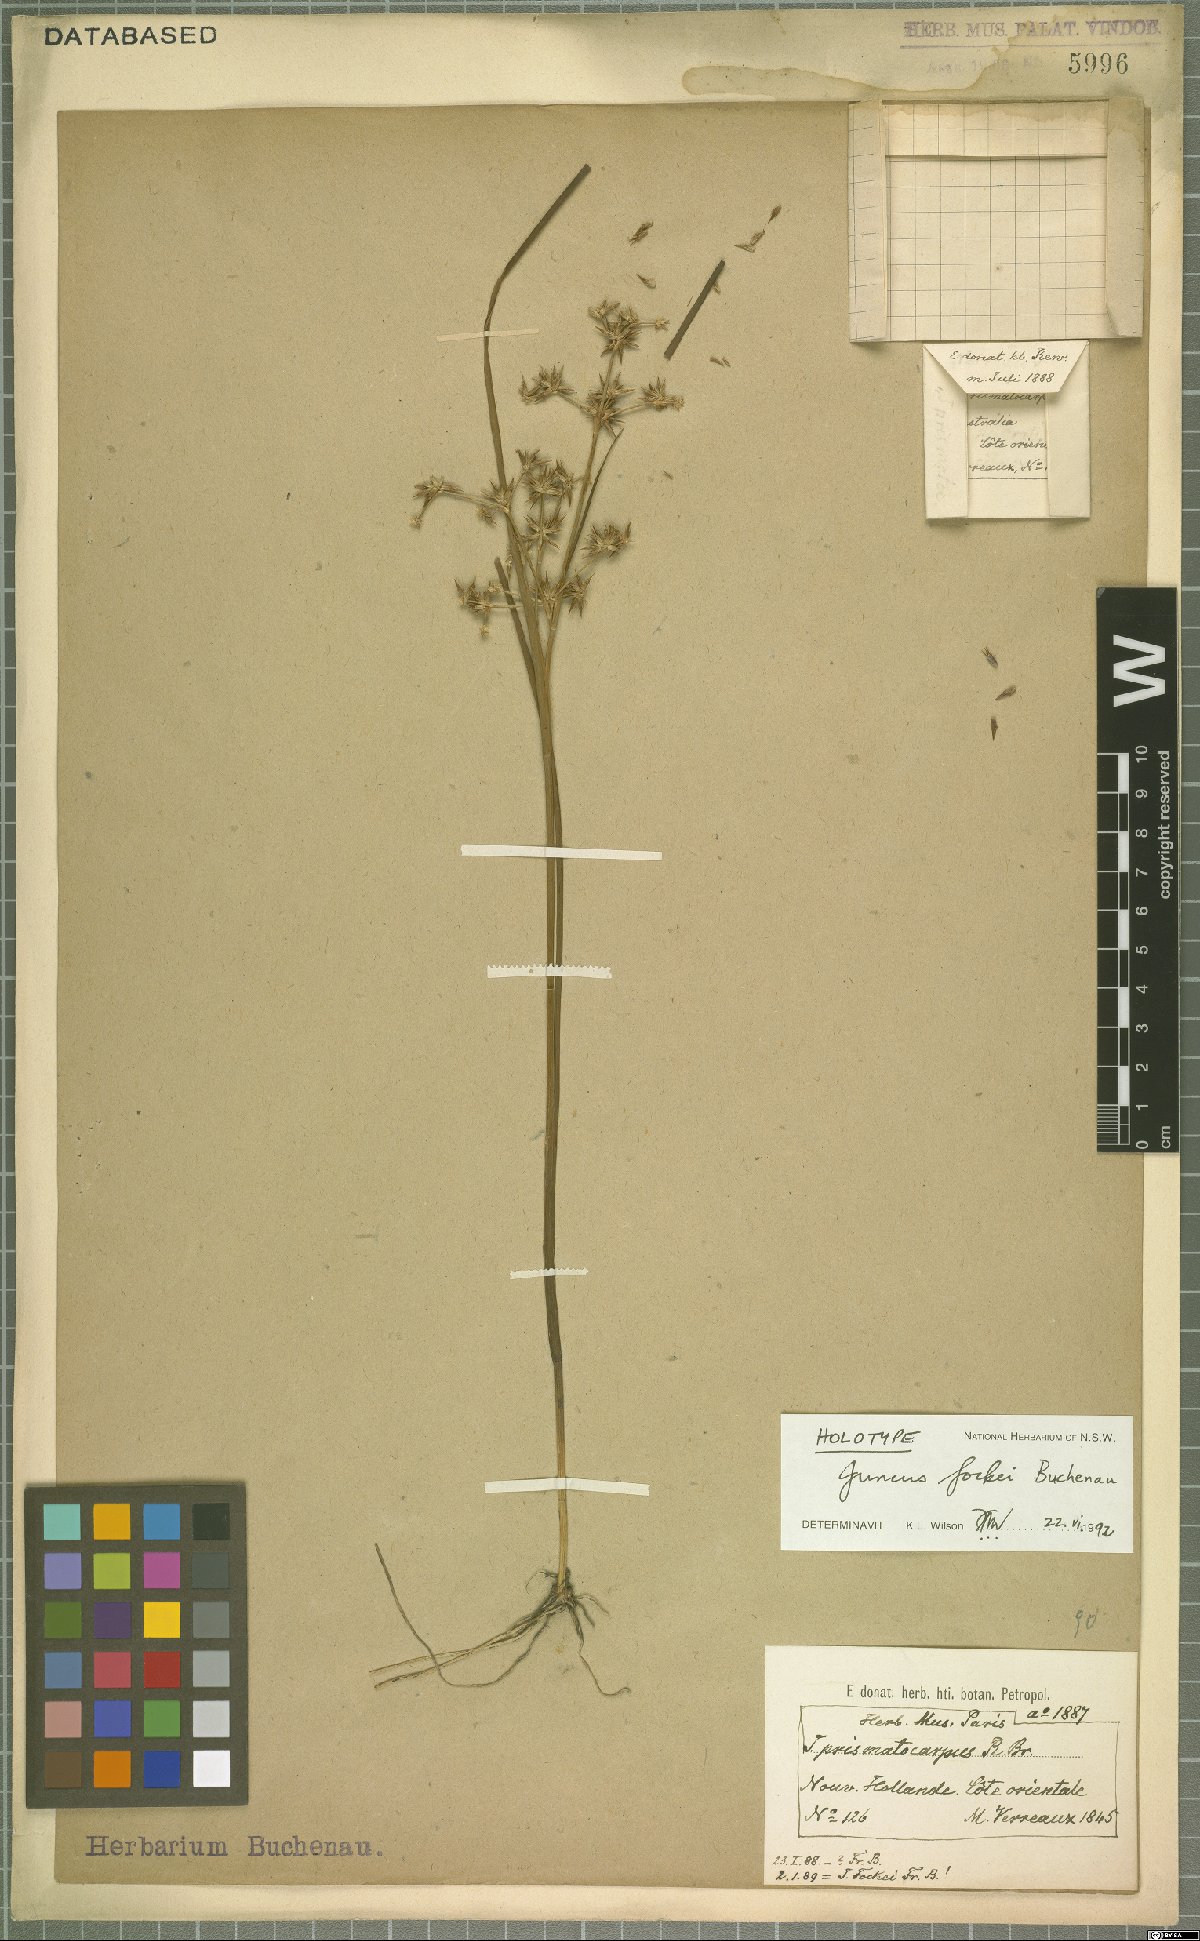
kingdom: Plantae
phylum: Tracheophyta
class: Liliopsida
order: Poales
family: Juncaceae
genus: Juncus
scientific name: Juncus fockei
